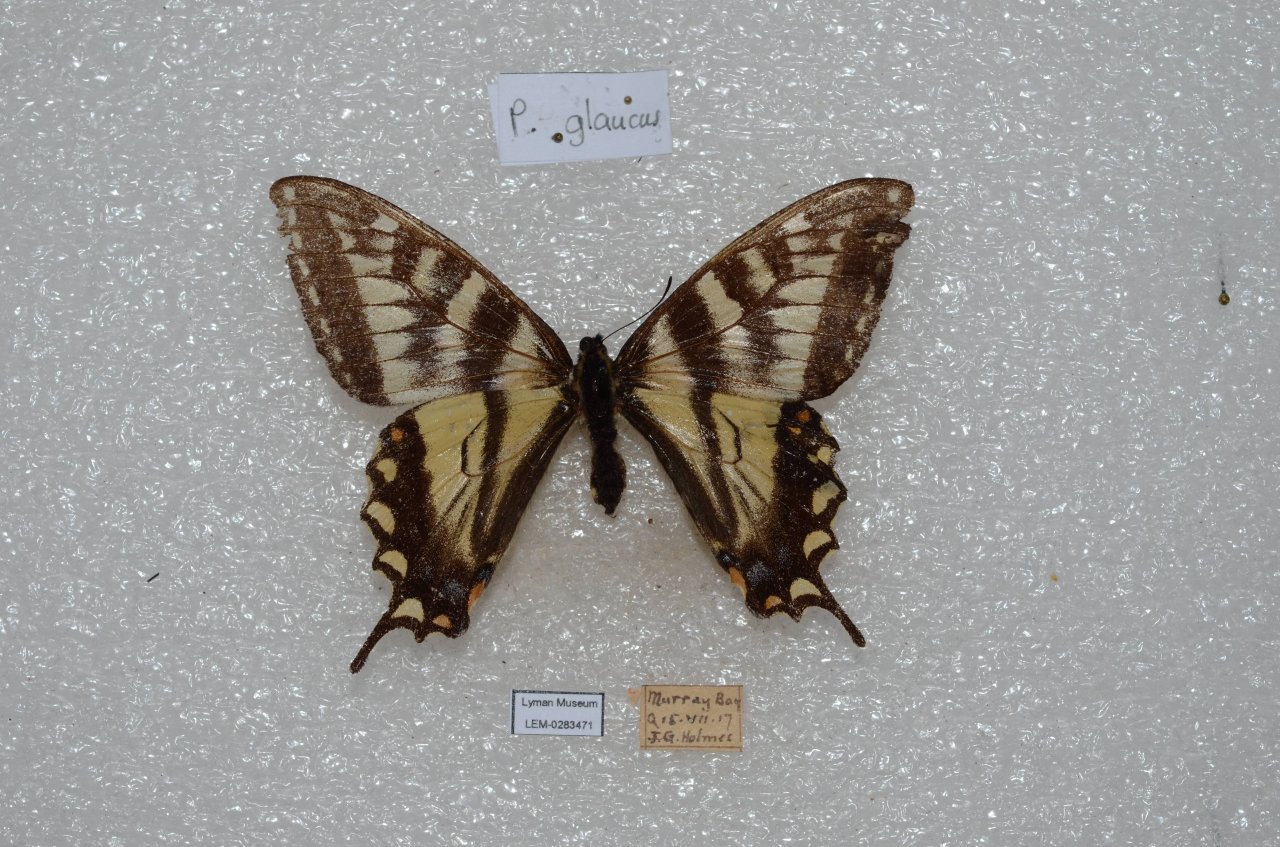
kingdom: Animalia
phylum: Arthropoda
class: Insecta
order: Lepidoptera
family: Papilionidae
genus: Pterourus
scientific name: Pterourus canadensis
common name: Canadian Tiger Swallowtail
